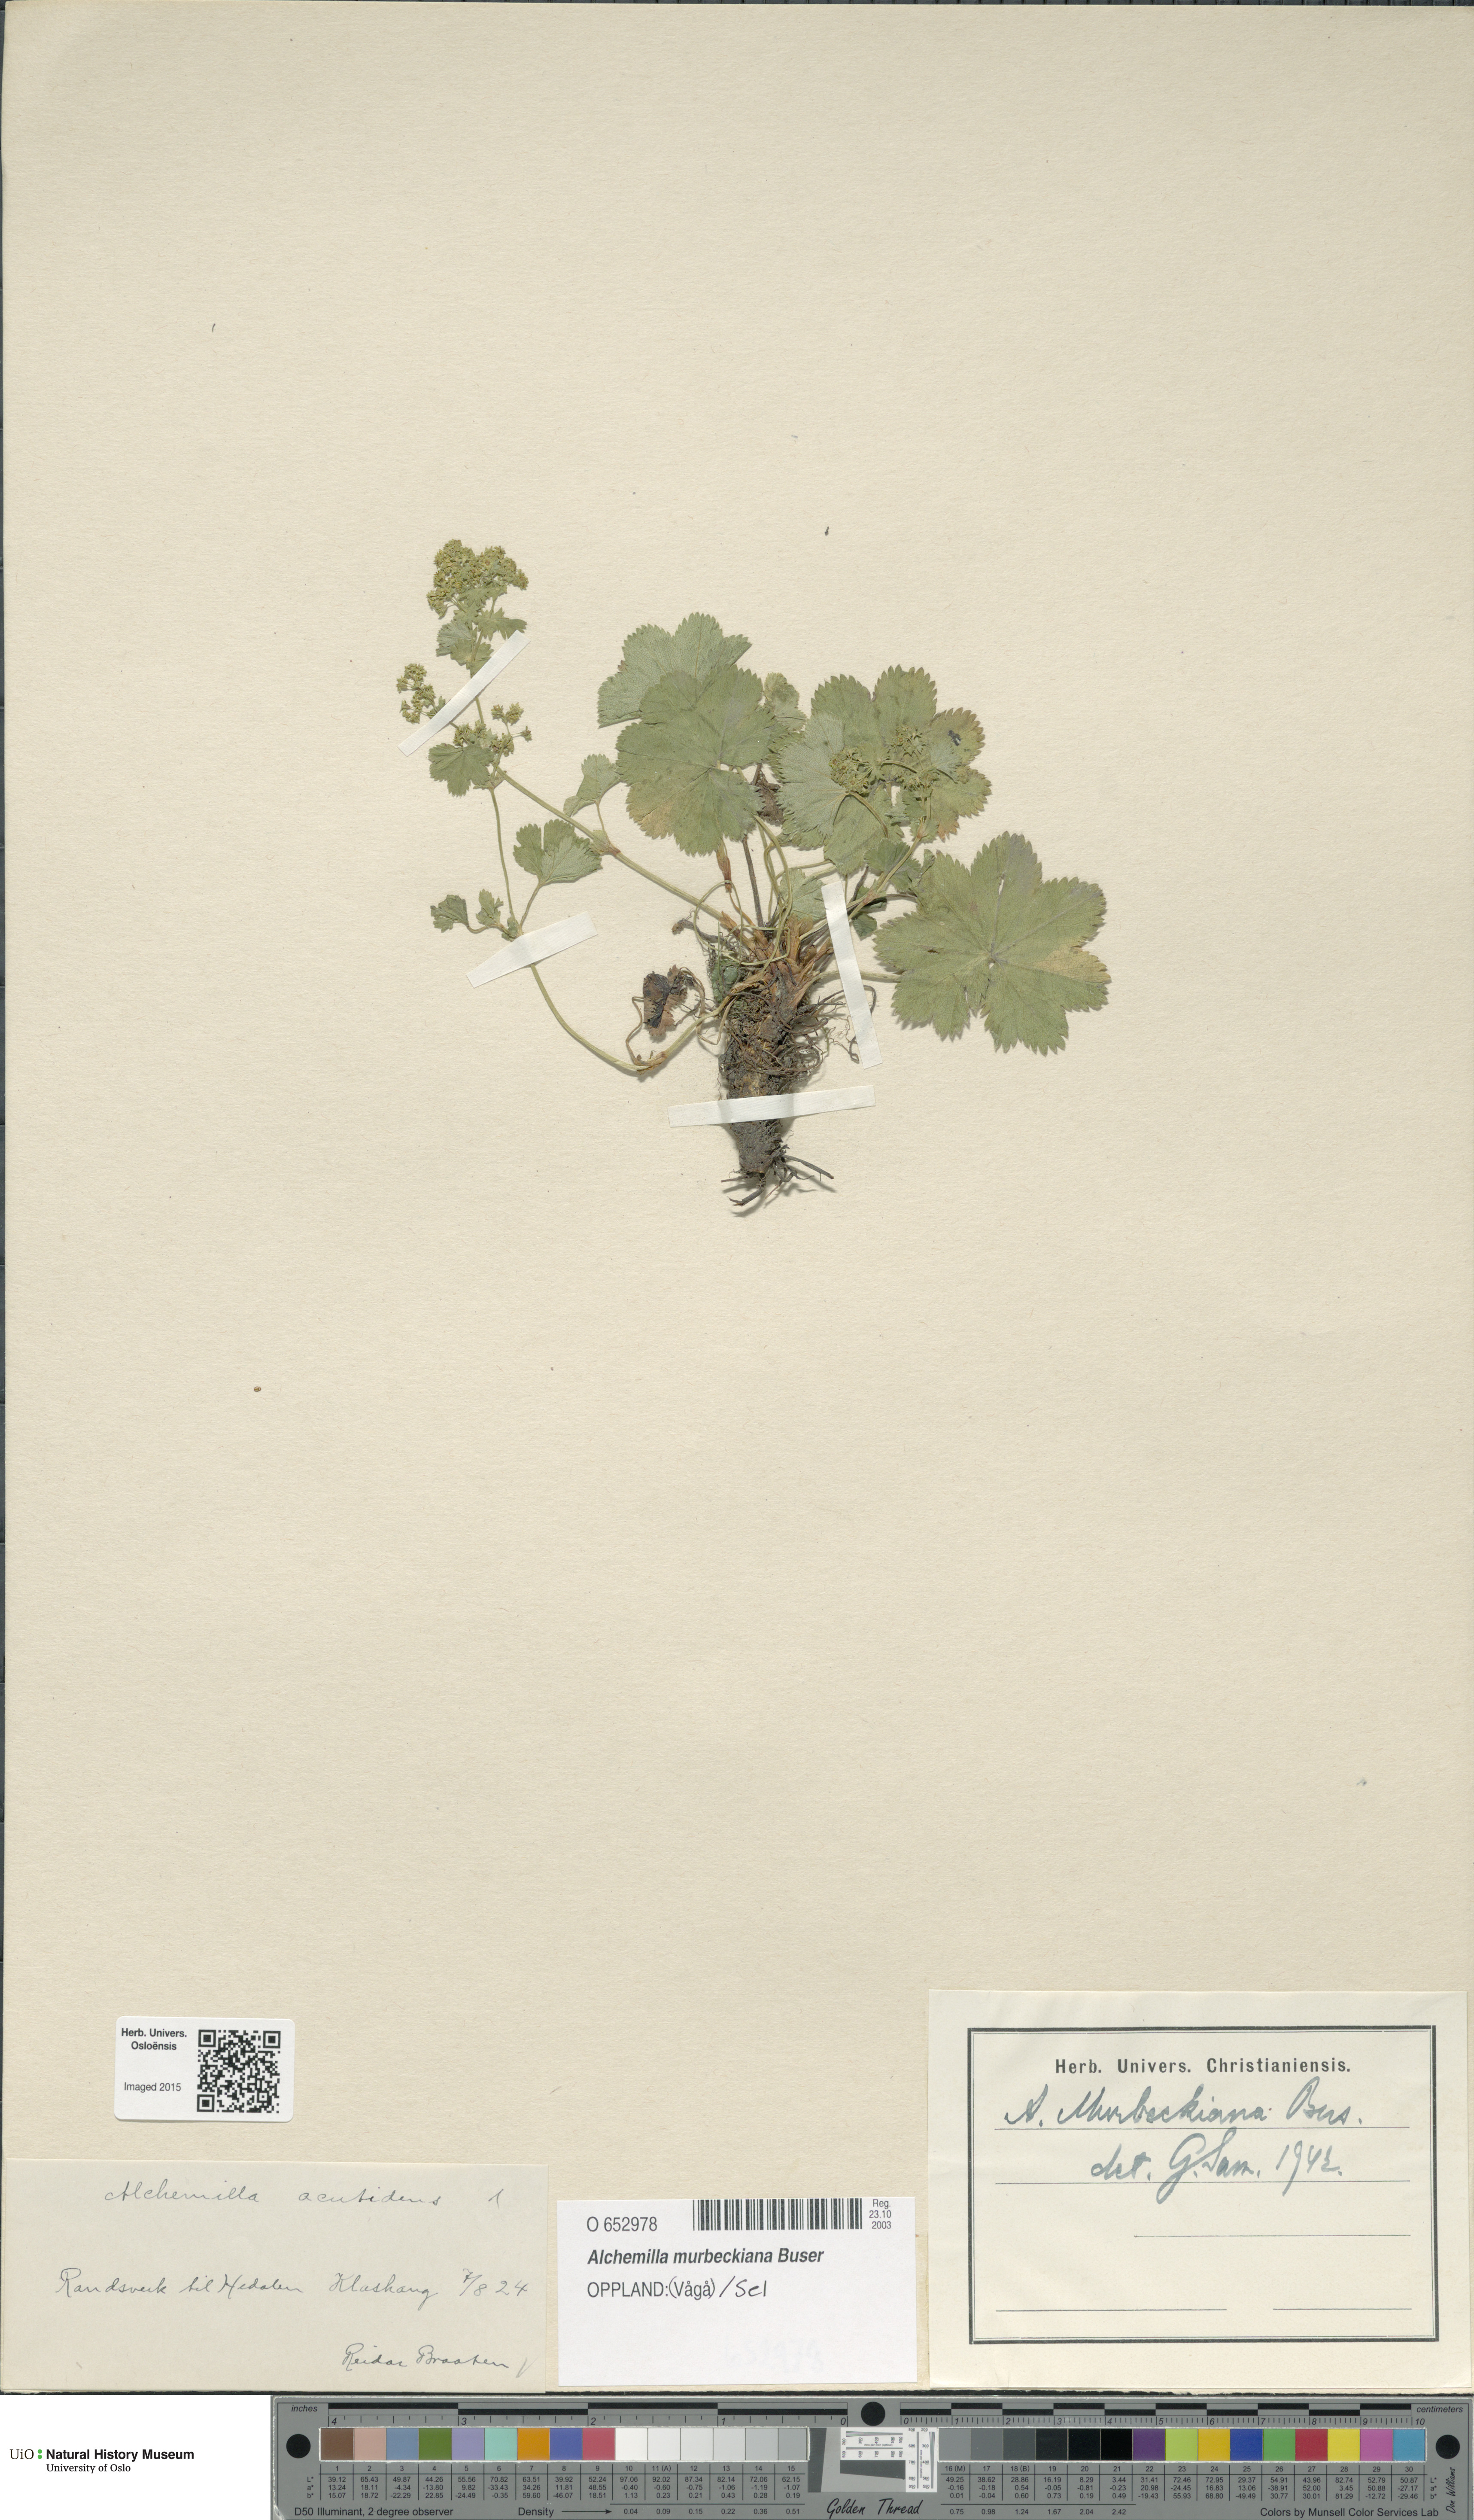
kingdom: Plantae
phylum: Tracheophyta
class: Magnoliopsida
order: Rosales
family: Rosaceae
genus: Alchemilla
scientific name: Alchemilla murbeckiana
